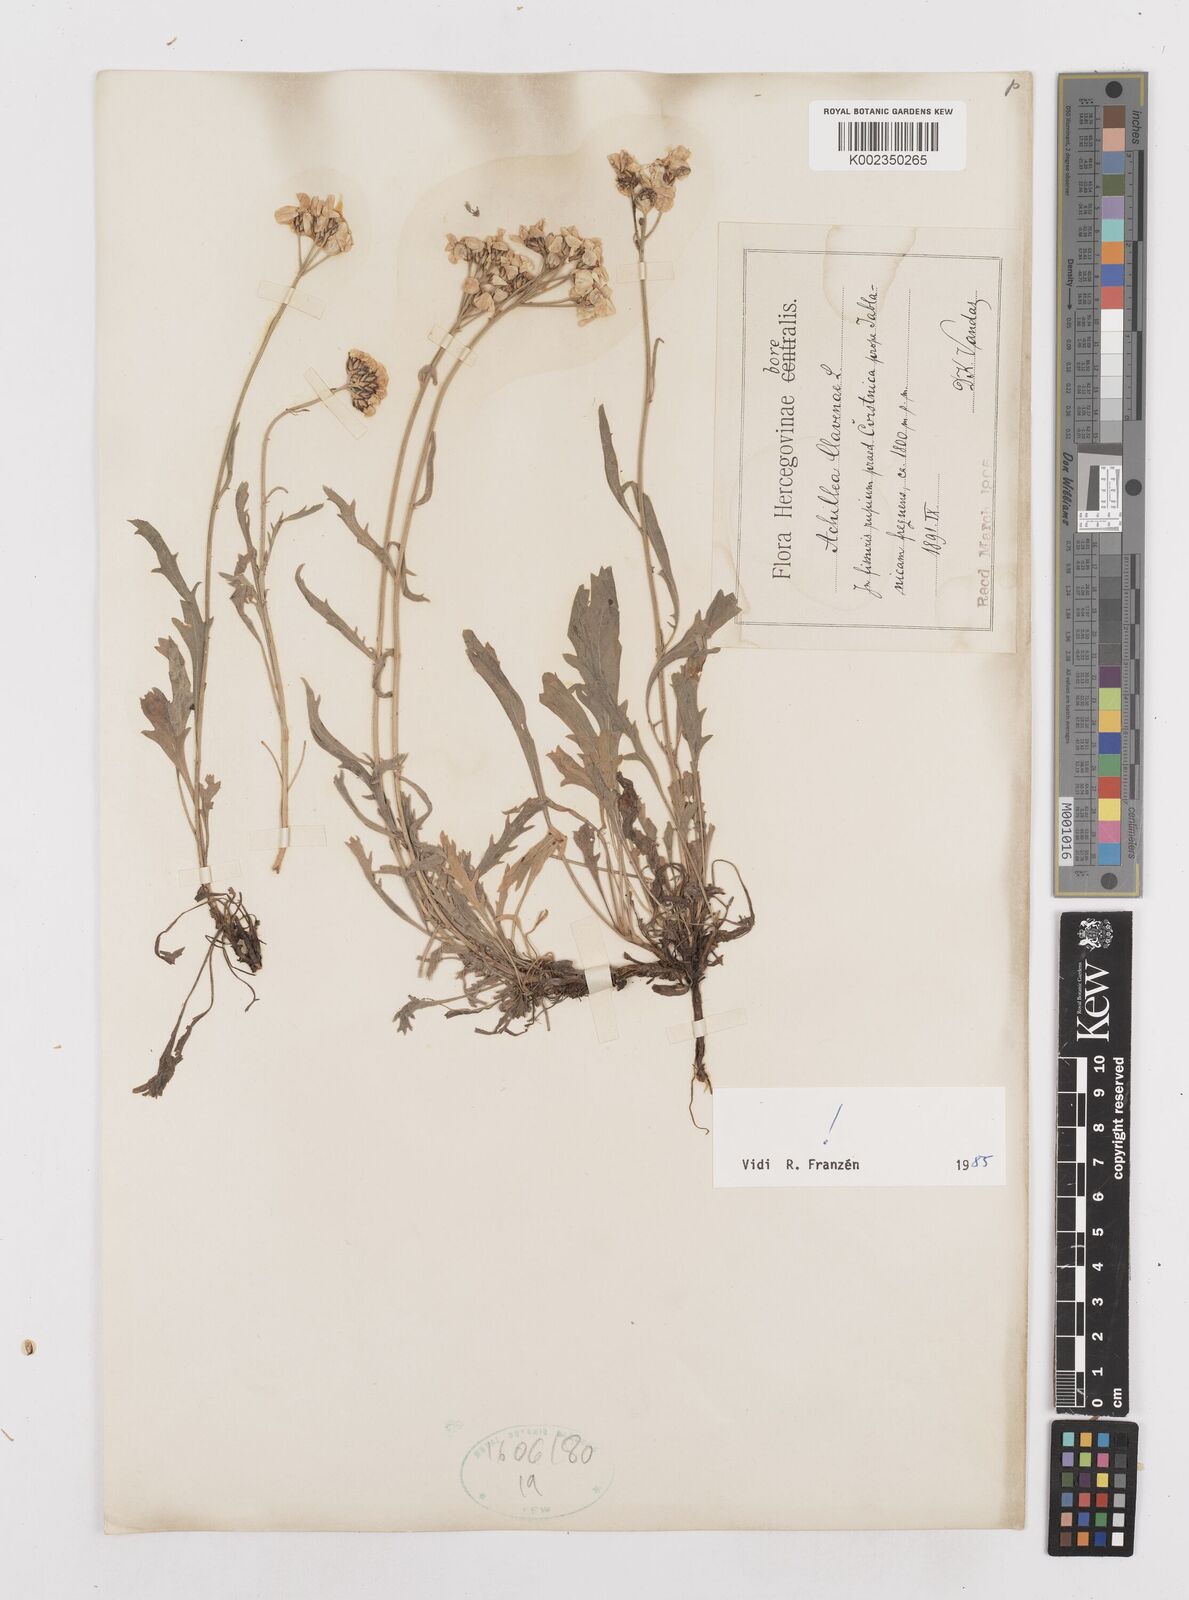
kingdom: Plantae
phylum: Tracheophyta
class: Magnoliopsida
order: Asterales
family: Asteraceae
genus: Achillea
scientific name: Achillea clavennae
